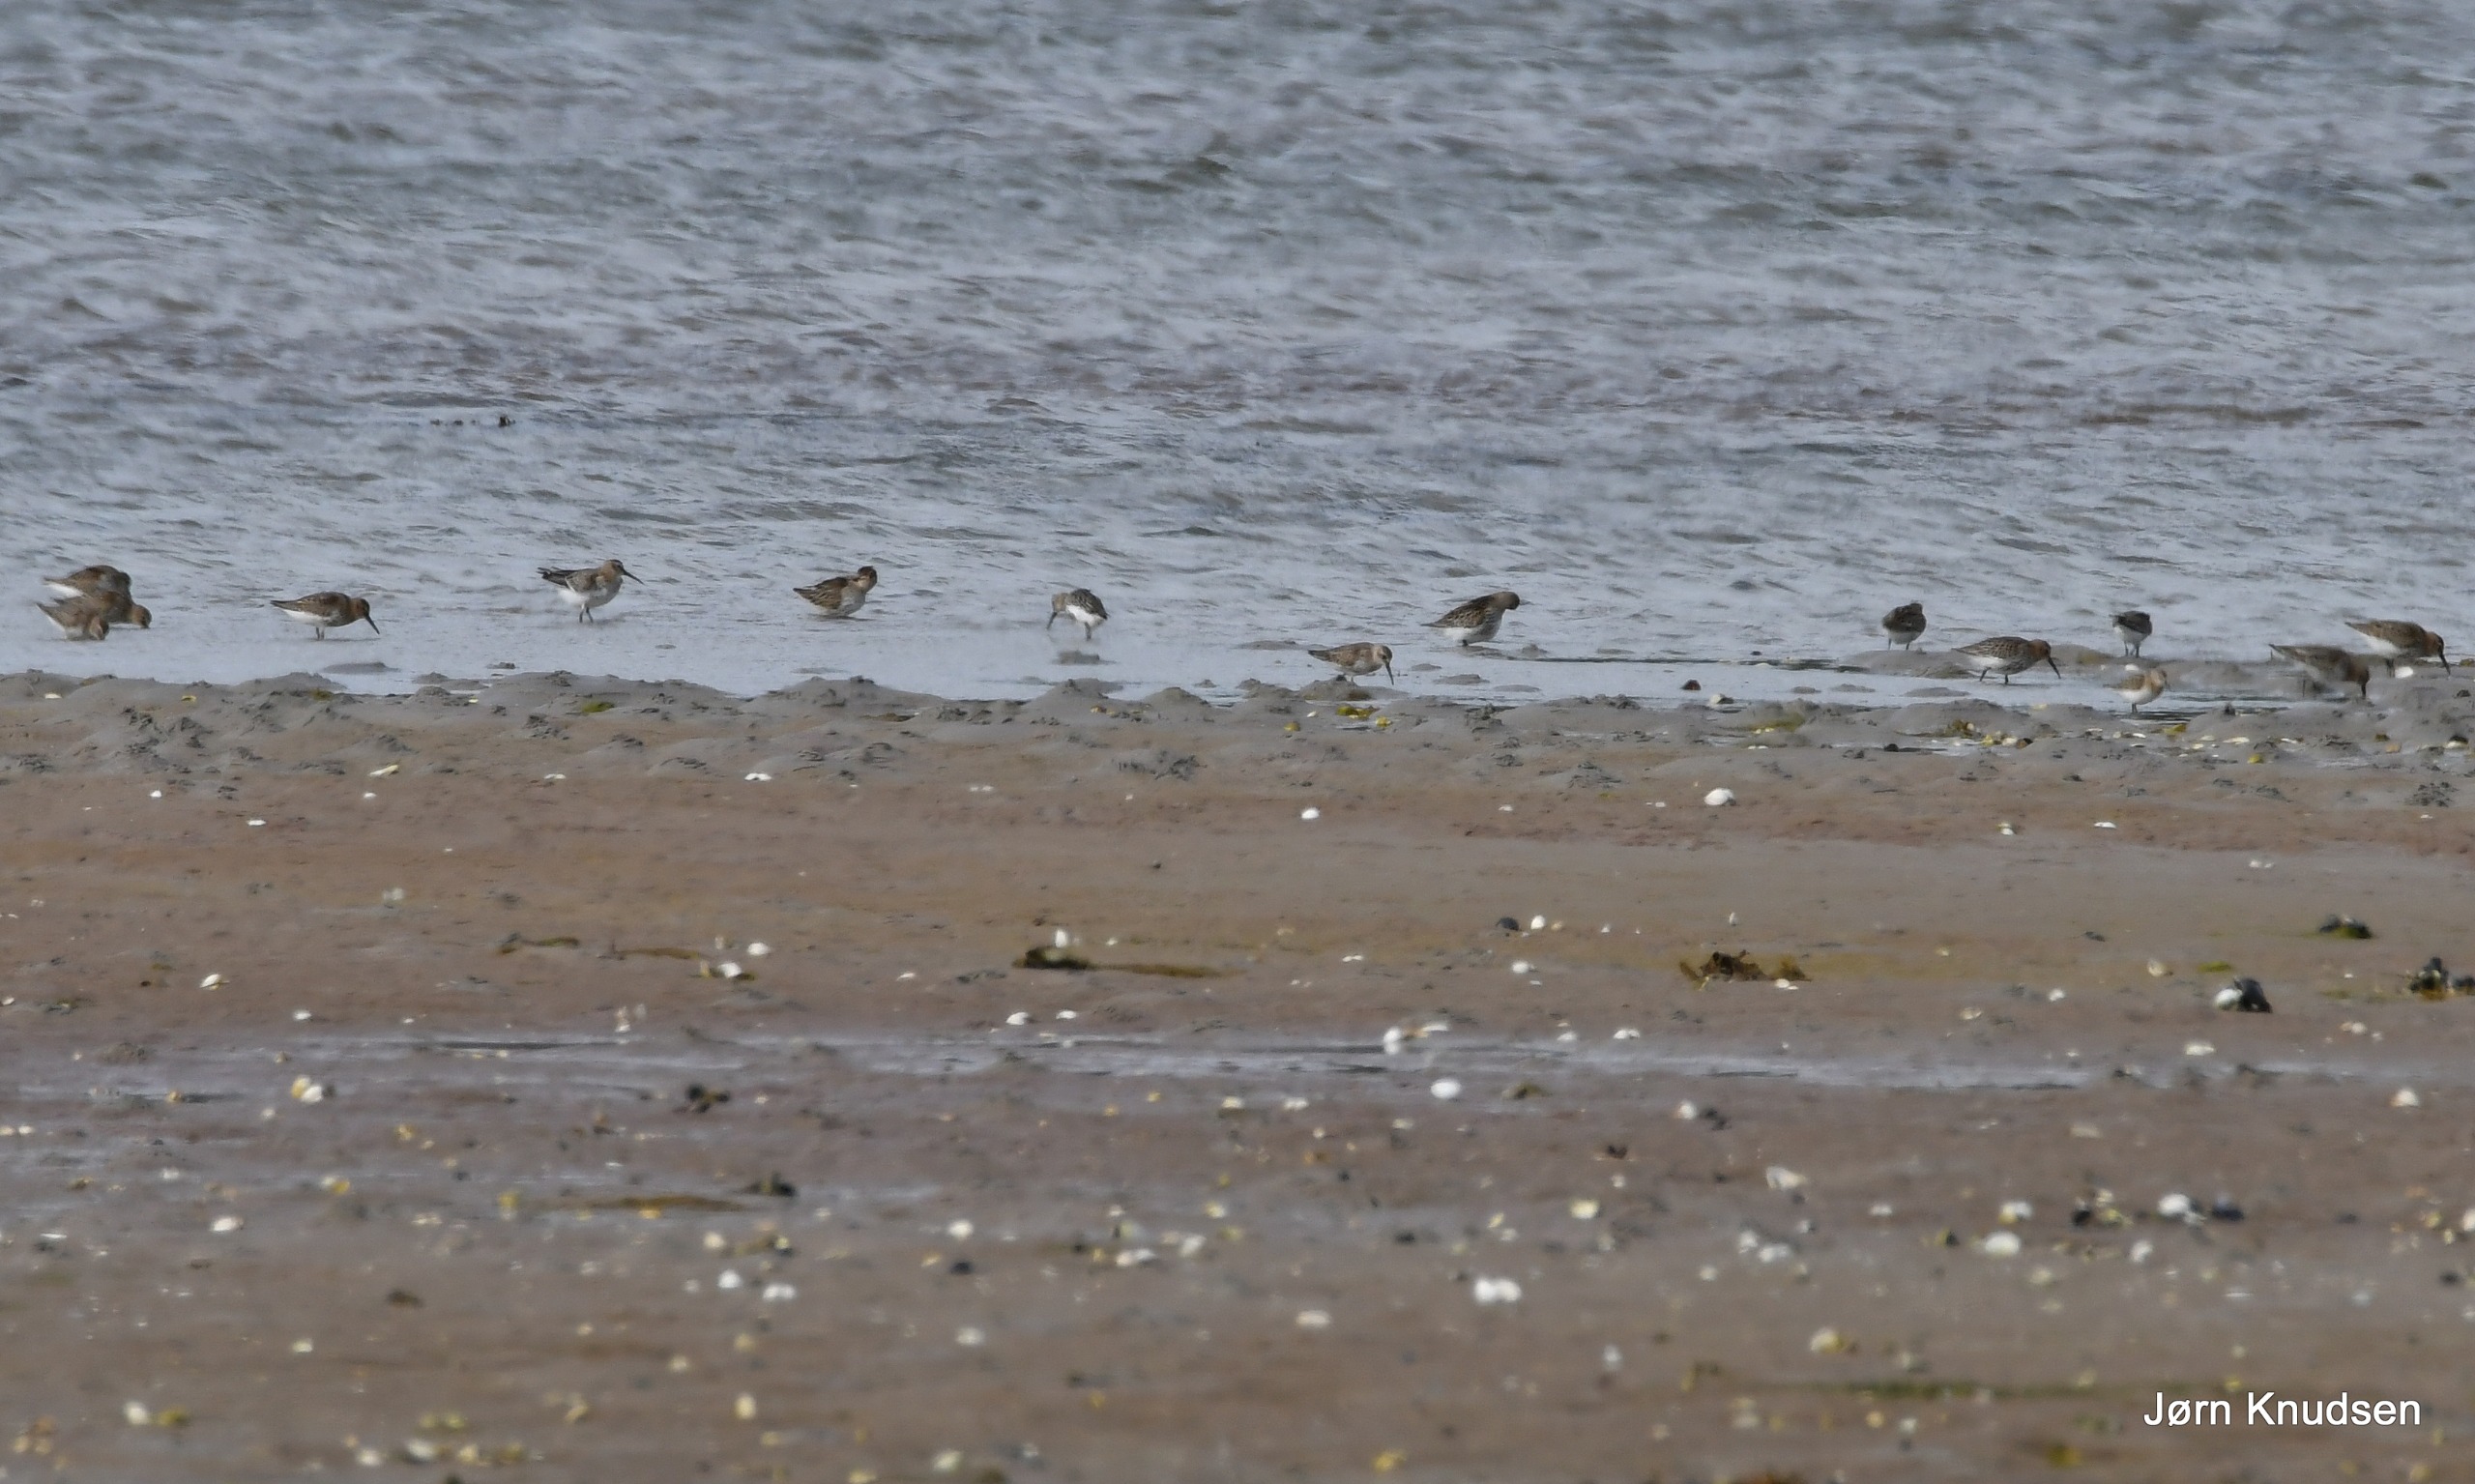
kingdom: Animalia
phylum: Chordata
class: Aves
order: Charadriiformes
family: Scolopacidae
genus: Calidris
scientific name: Calidris temminckii
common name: Temmincksryle
